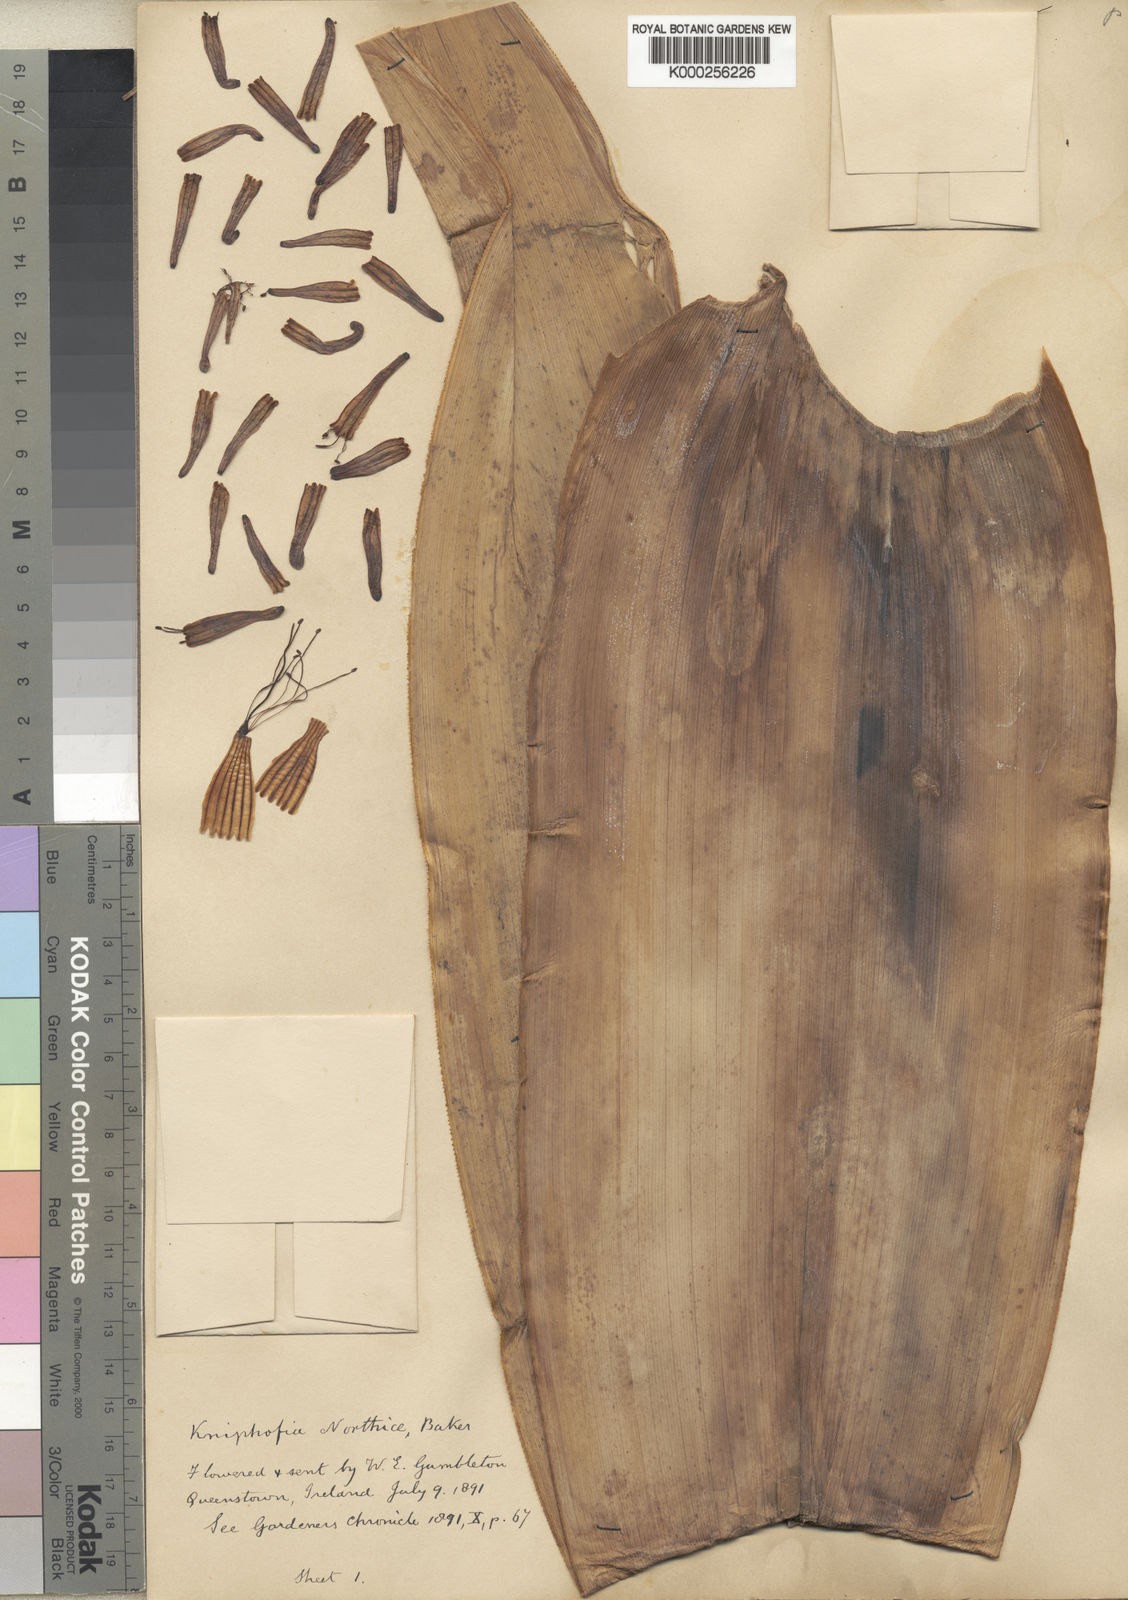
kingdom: Plantae
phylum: Tracheophyta
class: Liliopsida
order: Asparagales
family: Asphodelaceae
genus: Kniphofia
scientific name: Kniphofia northiae
